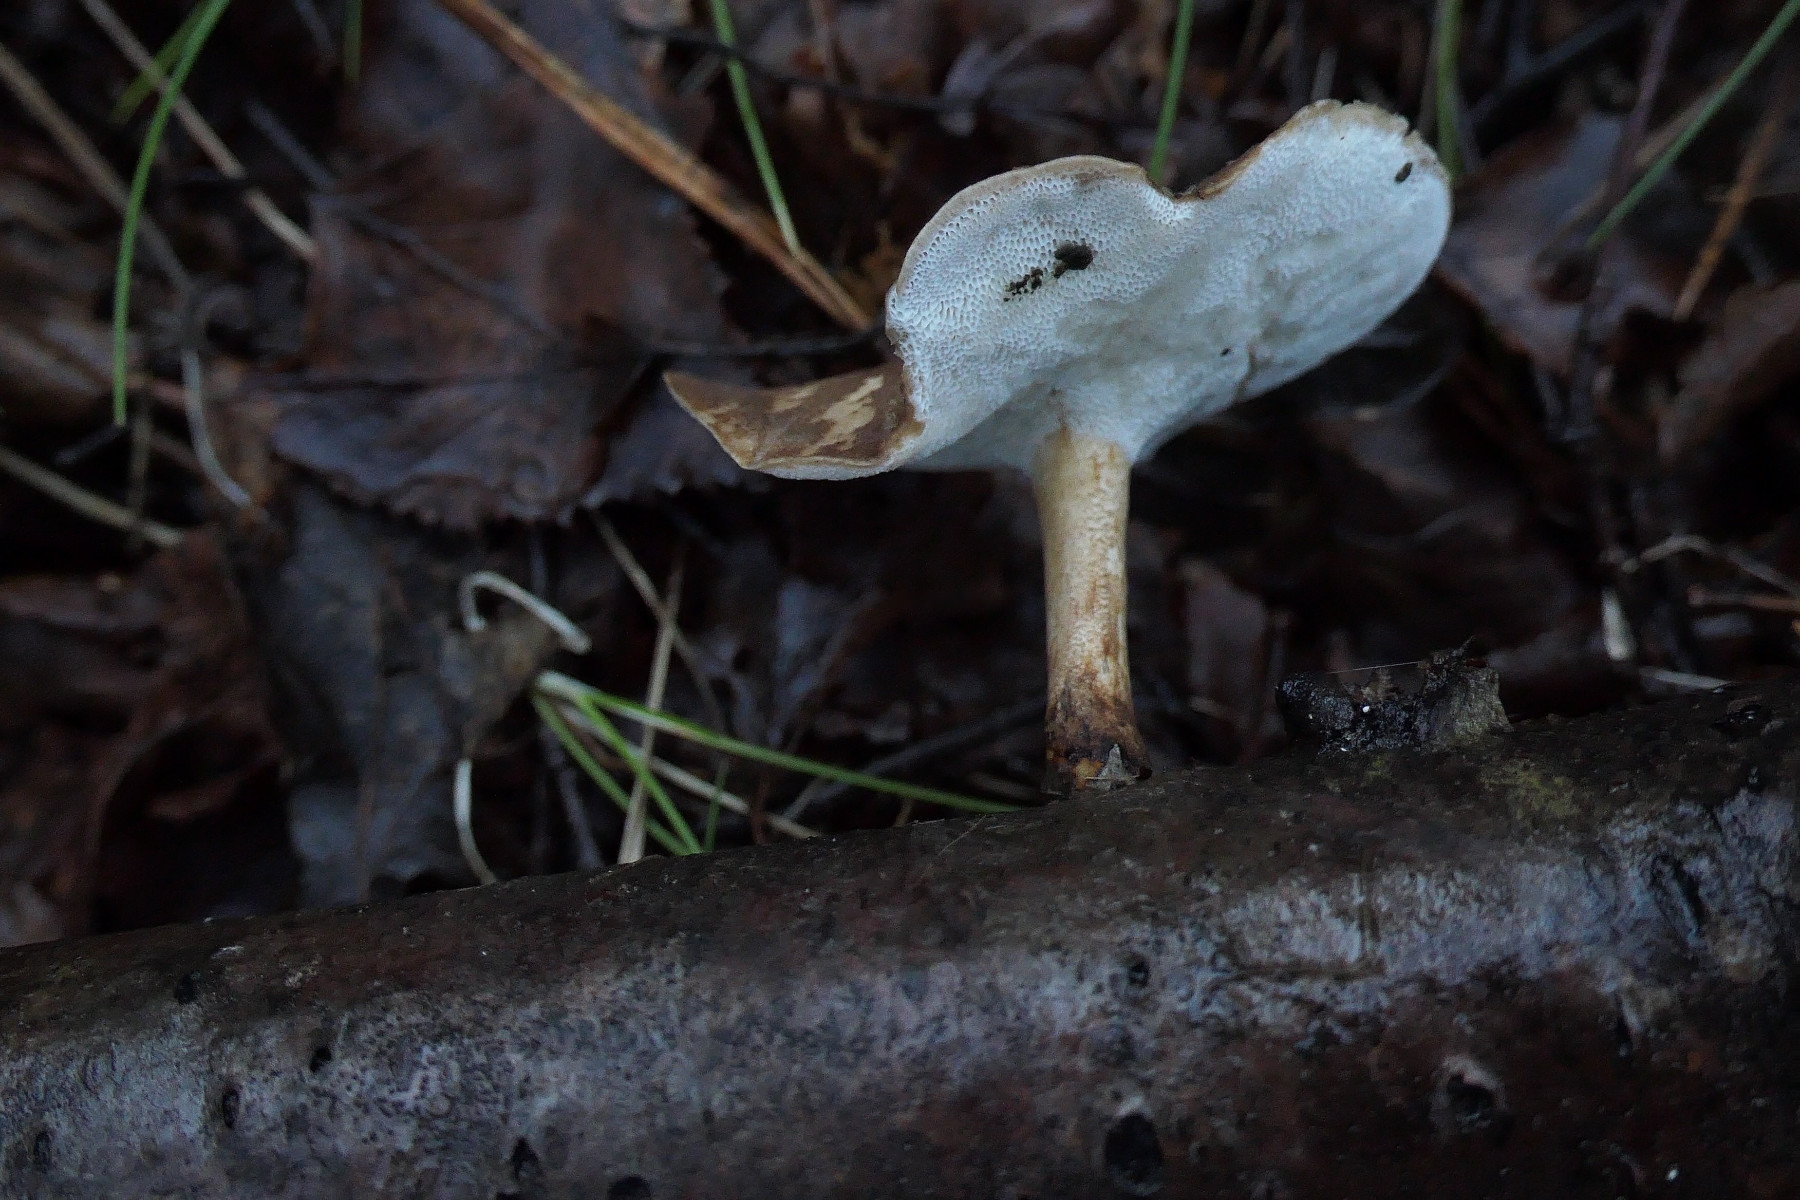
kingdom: Fungi
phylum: Basidiomycota
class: Agaricomycetes
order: Polyporales
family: Polyporaceae
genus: Lentinus
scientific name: Lentinus brumalis
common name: vinter-stilkporesvamp
